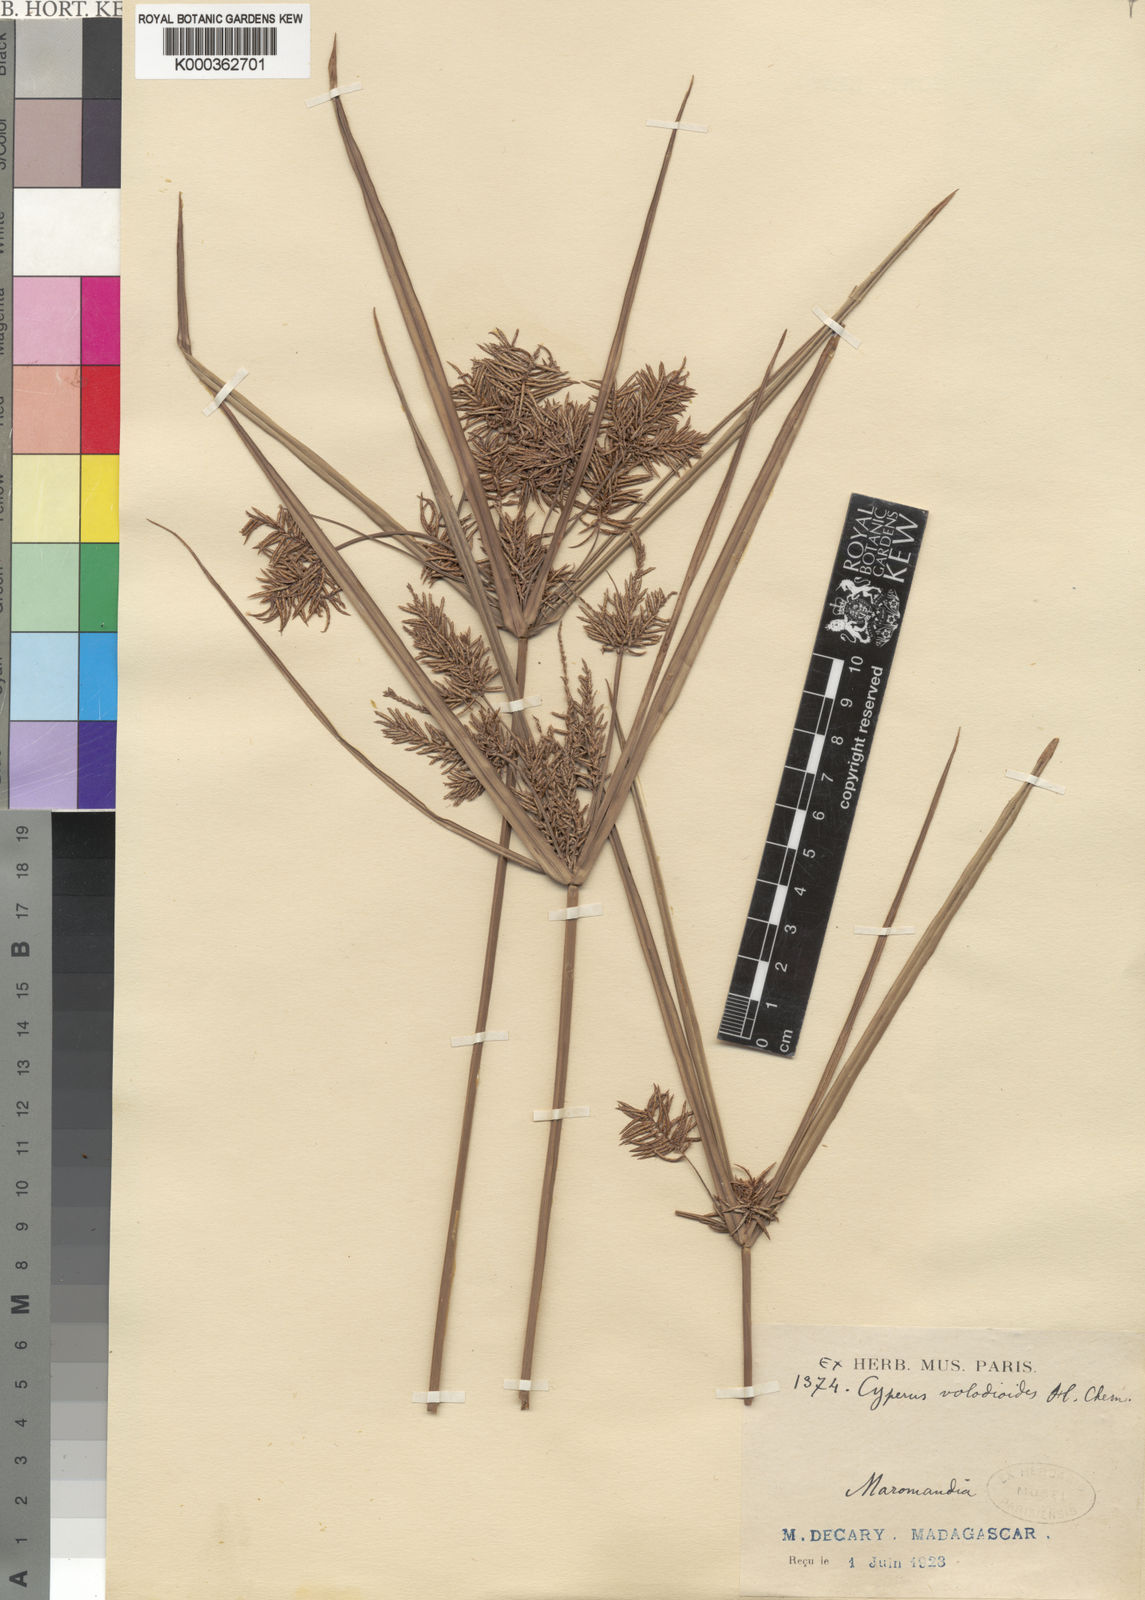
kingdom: Plantae
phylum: Tracheophyta
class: Liliopsida
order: Poales
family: Cyperaceae
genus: Cyperus
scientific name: Cyperus mangorensis
